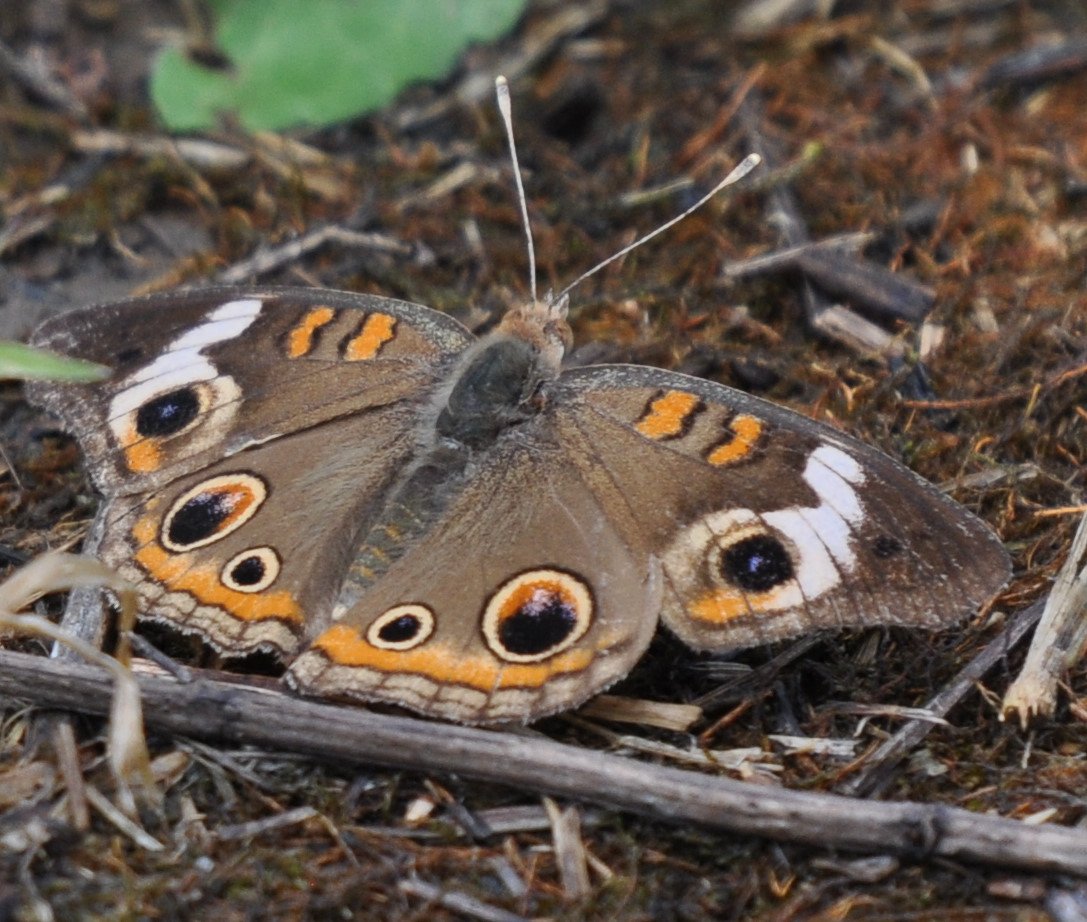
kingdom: Animalia
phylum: Arthropoda
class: Insecta
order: Lepidoptera
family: Nymphalidae
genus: Junonia
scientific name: Junonia coenia
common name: Common Buckeye
